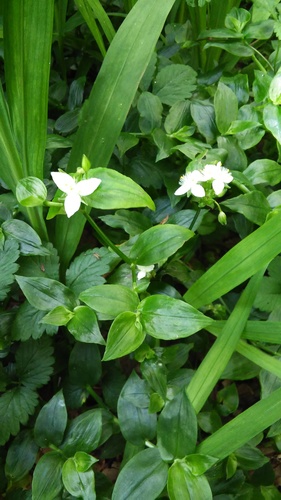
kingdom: Plantae
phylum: Tracheophyta
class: Liliopsida
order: Commelinales
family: Commelinaceae
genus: Tradescantia
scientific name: Tradescantia fluminensis
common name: Wandering-jew
